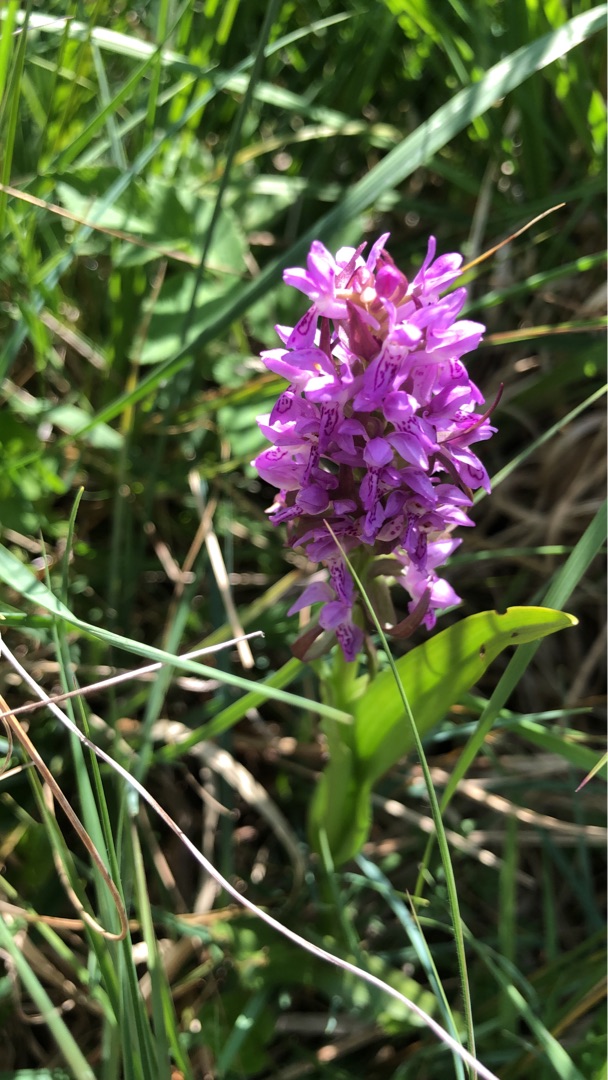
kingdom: Plantae
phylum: Tracheophyta
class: Liliopsida
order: Asparagales
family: Orchidaceae
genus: Dactylorhiza
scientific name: Dactylorhiza incarnata
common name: Kødfarvet gøgeurt
